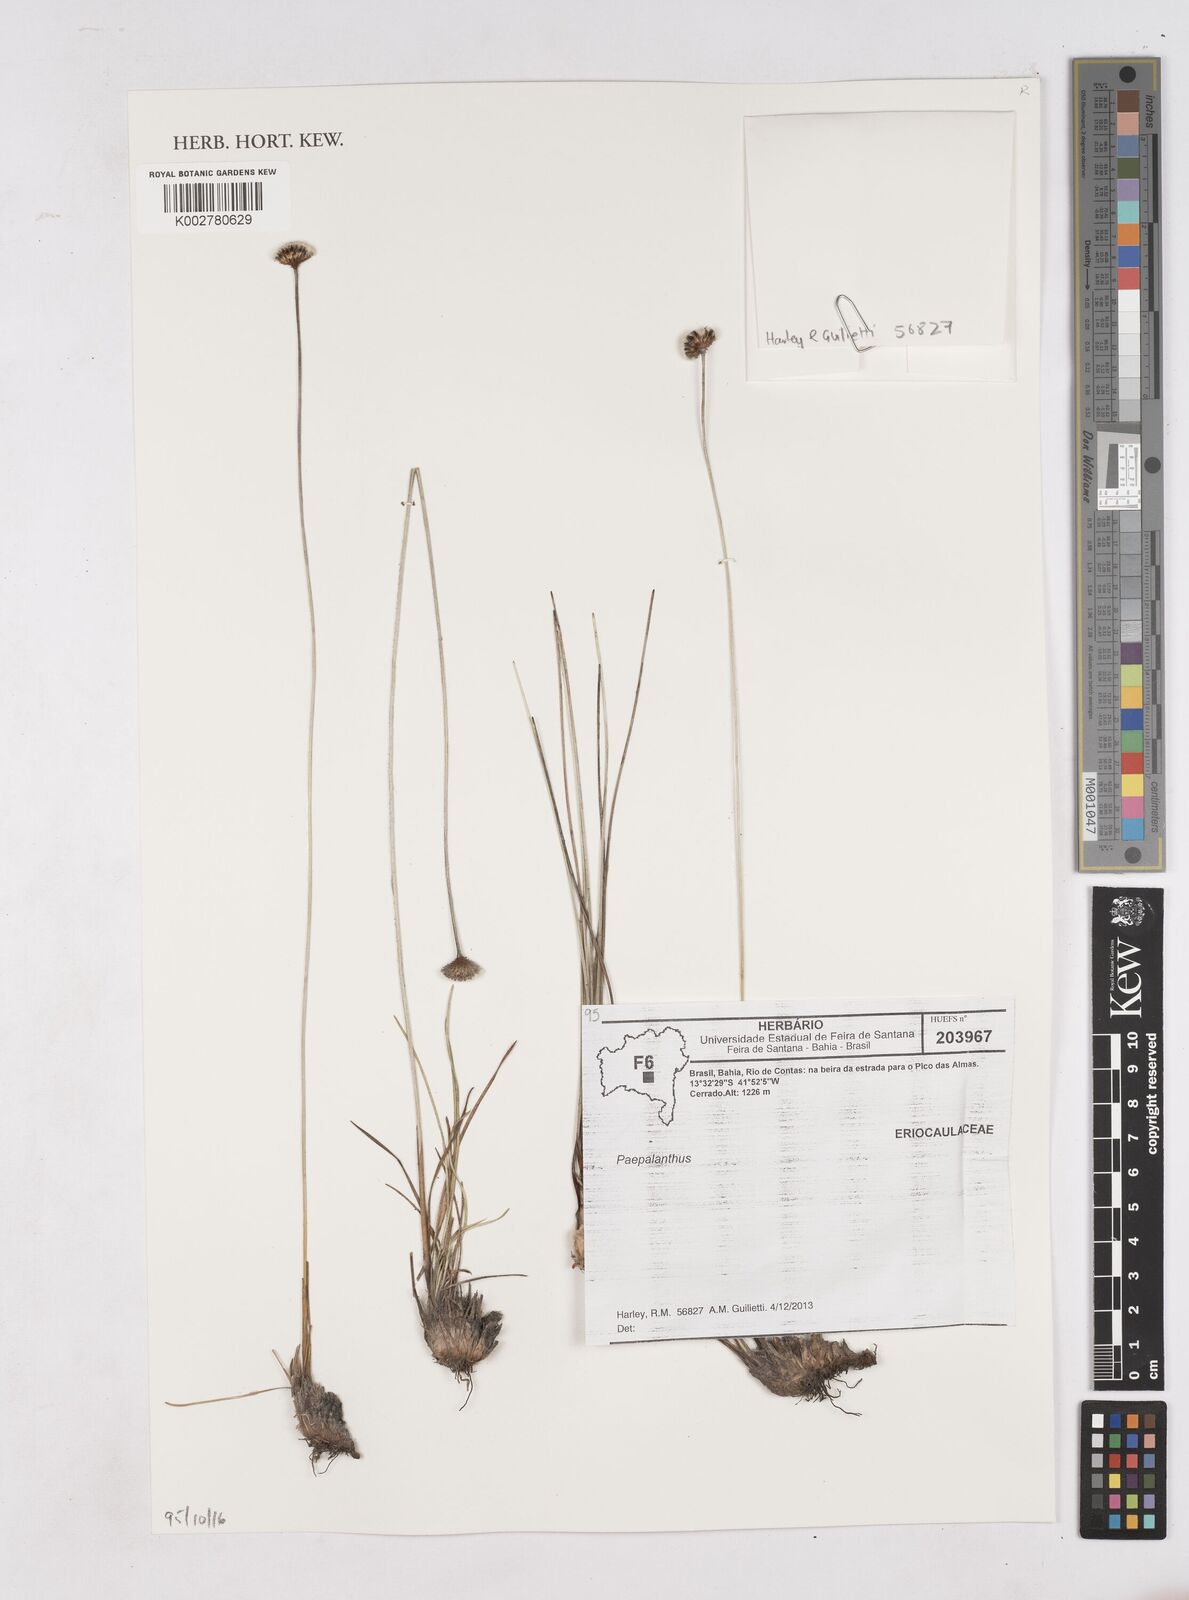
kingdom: Plantae
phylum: Tracheophyta
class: Liliopsida
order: Poales
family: Eriocaulaceae
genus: Paepalanthus
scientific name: Paepalanthus
